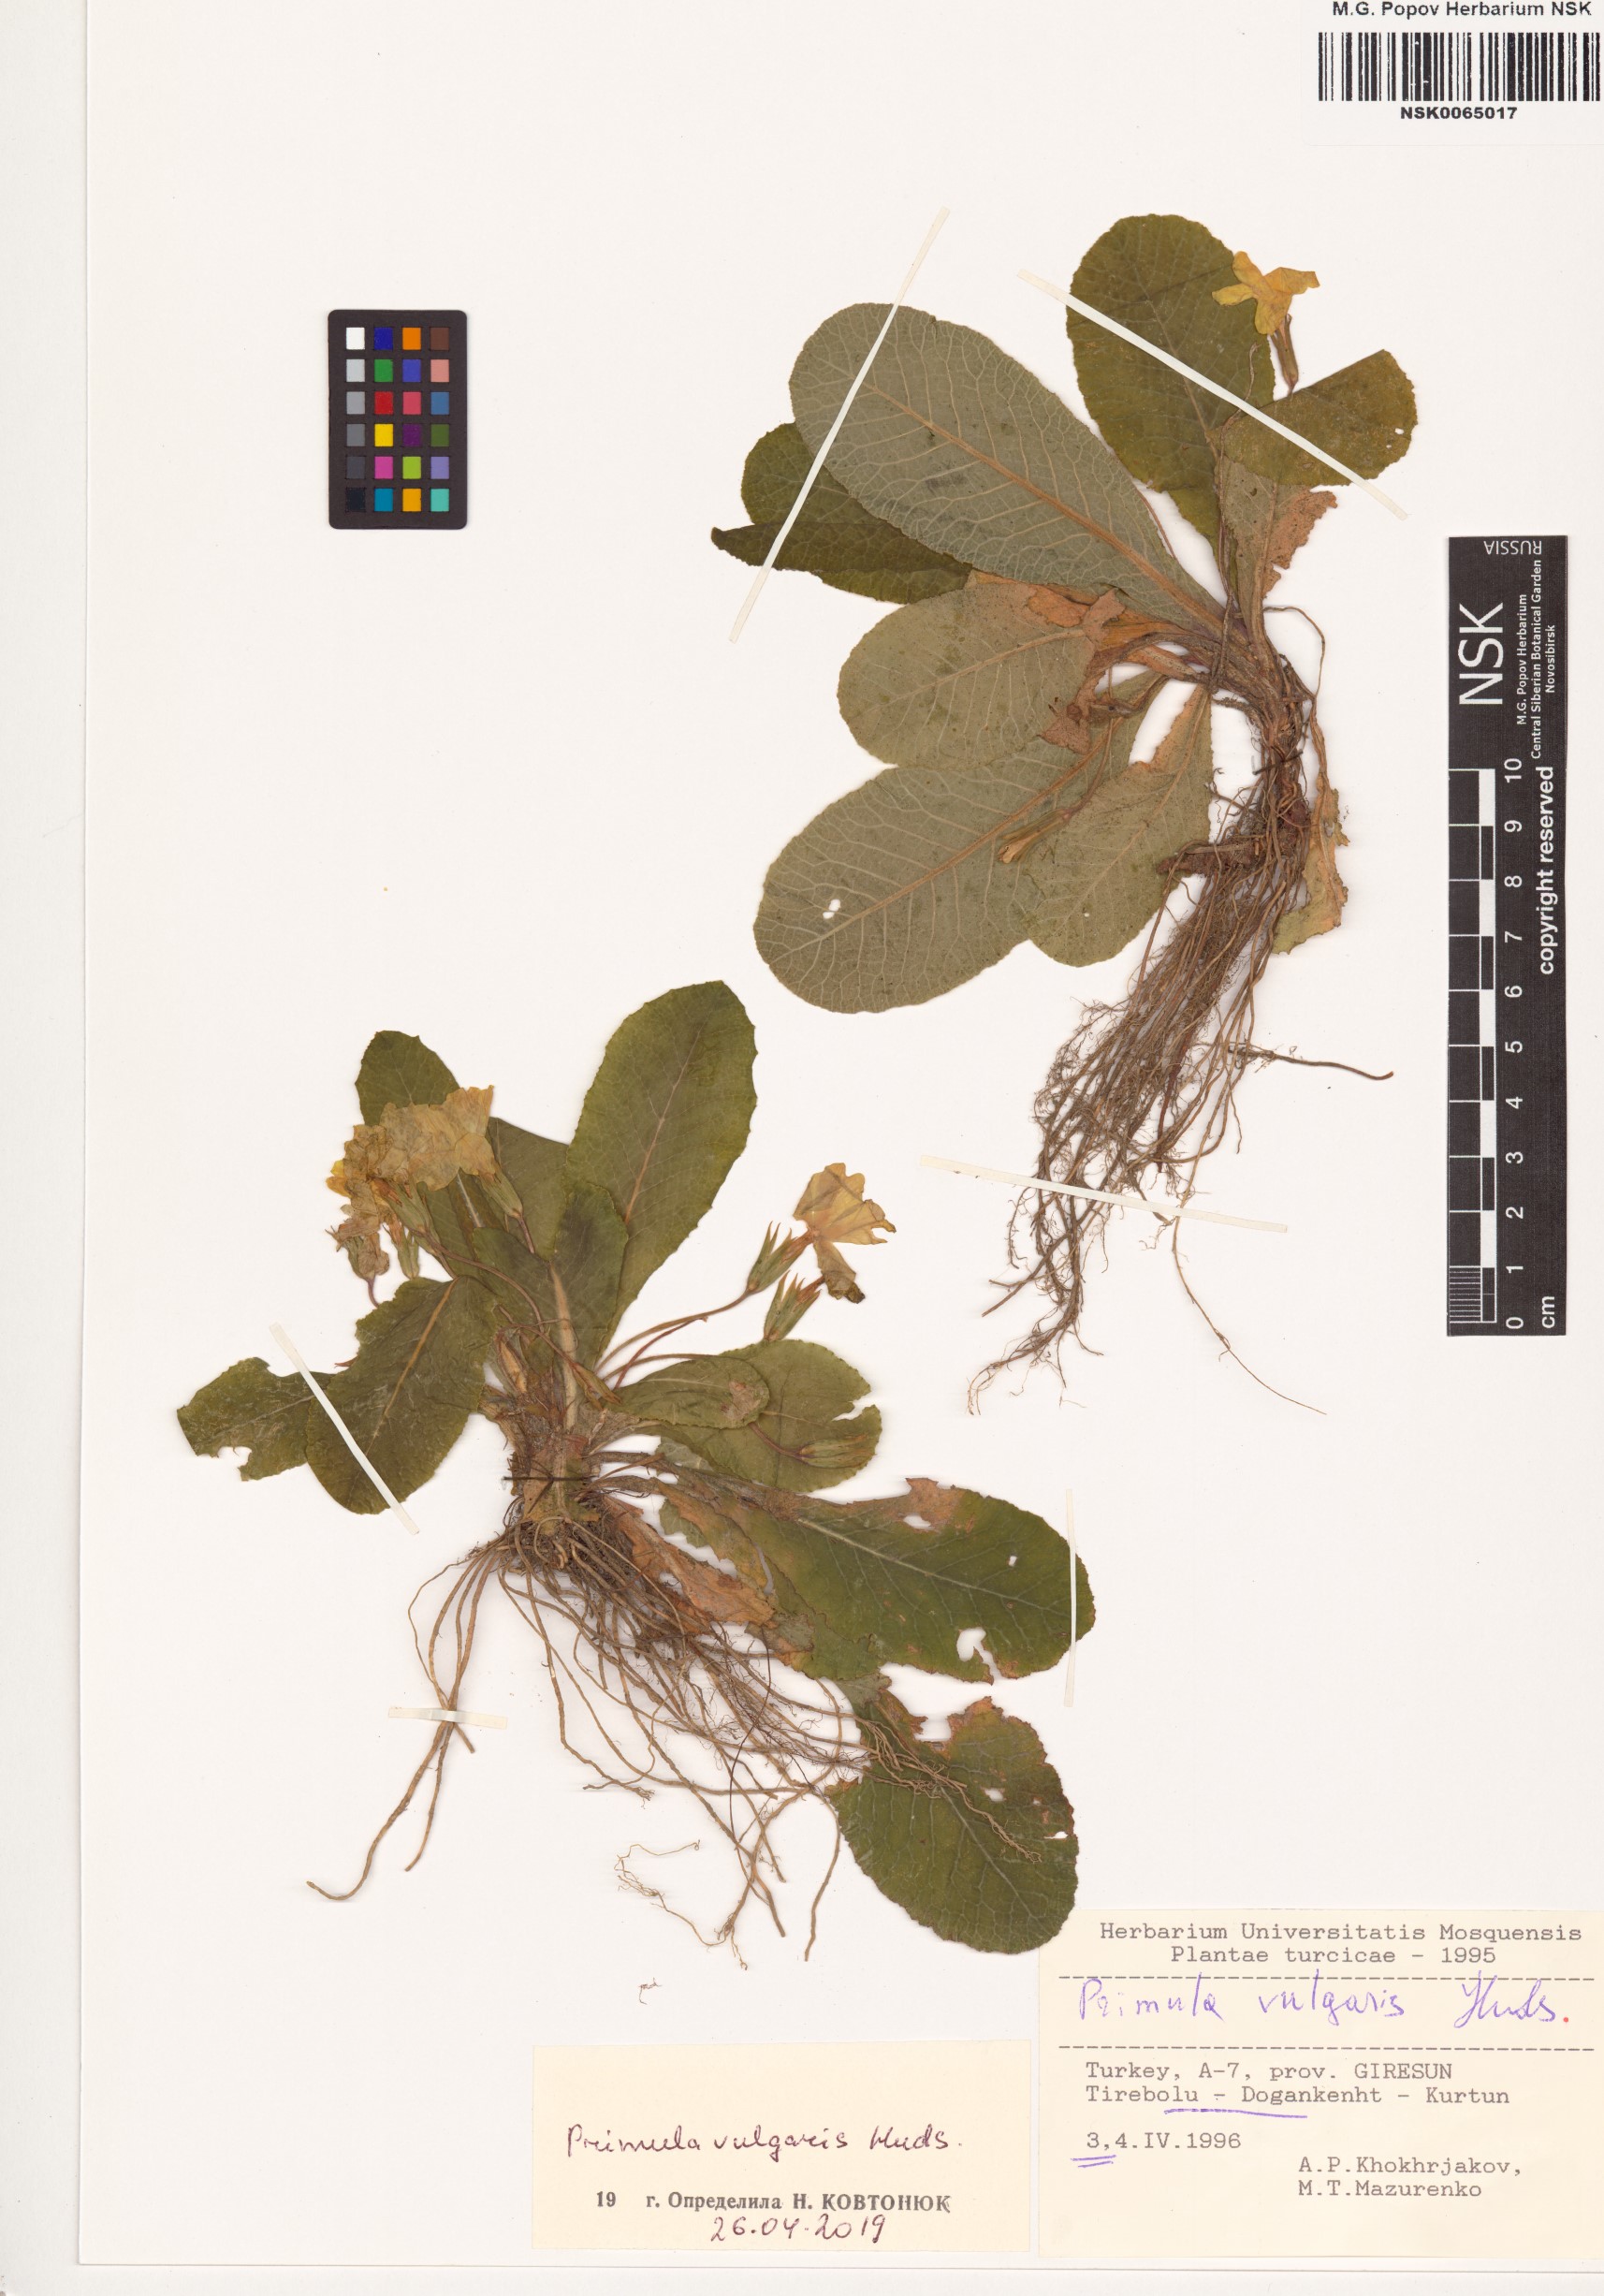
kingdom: Plantae
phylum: Tracheophyta
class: Magnoliopsida
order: Ericales
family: Primulaceae
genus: Primula
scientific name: Primula vulgaris
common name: Primrose
